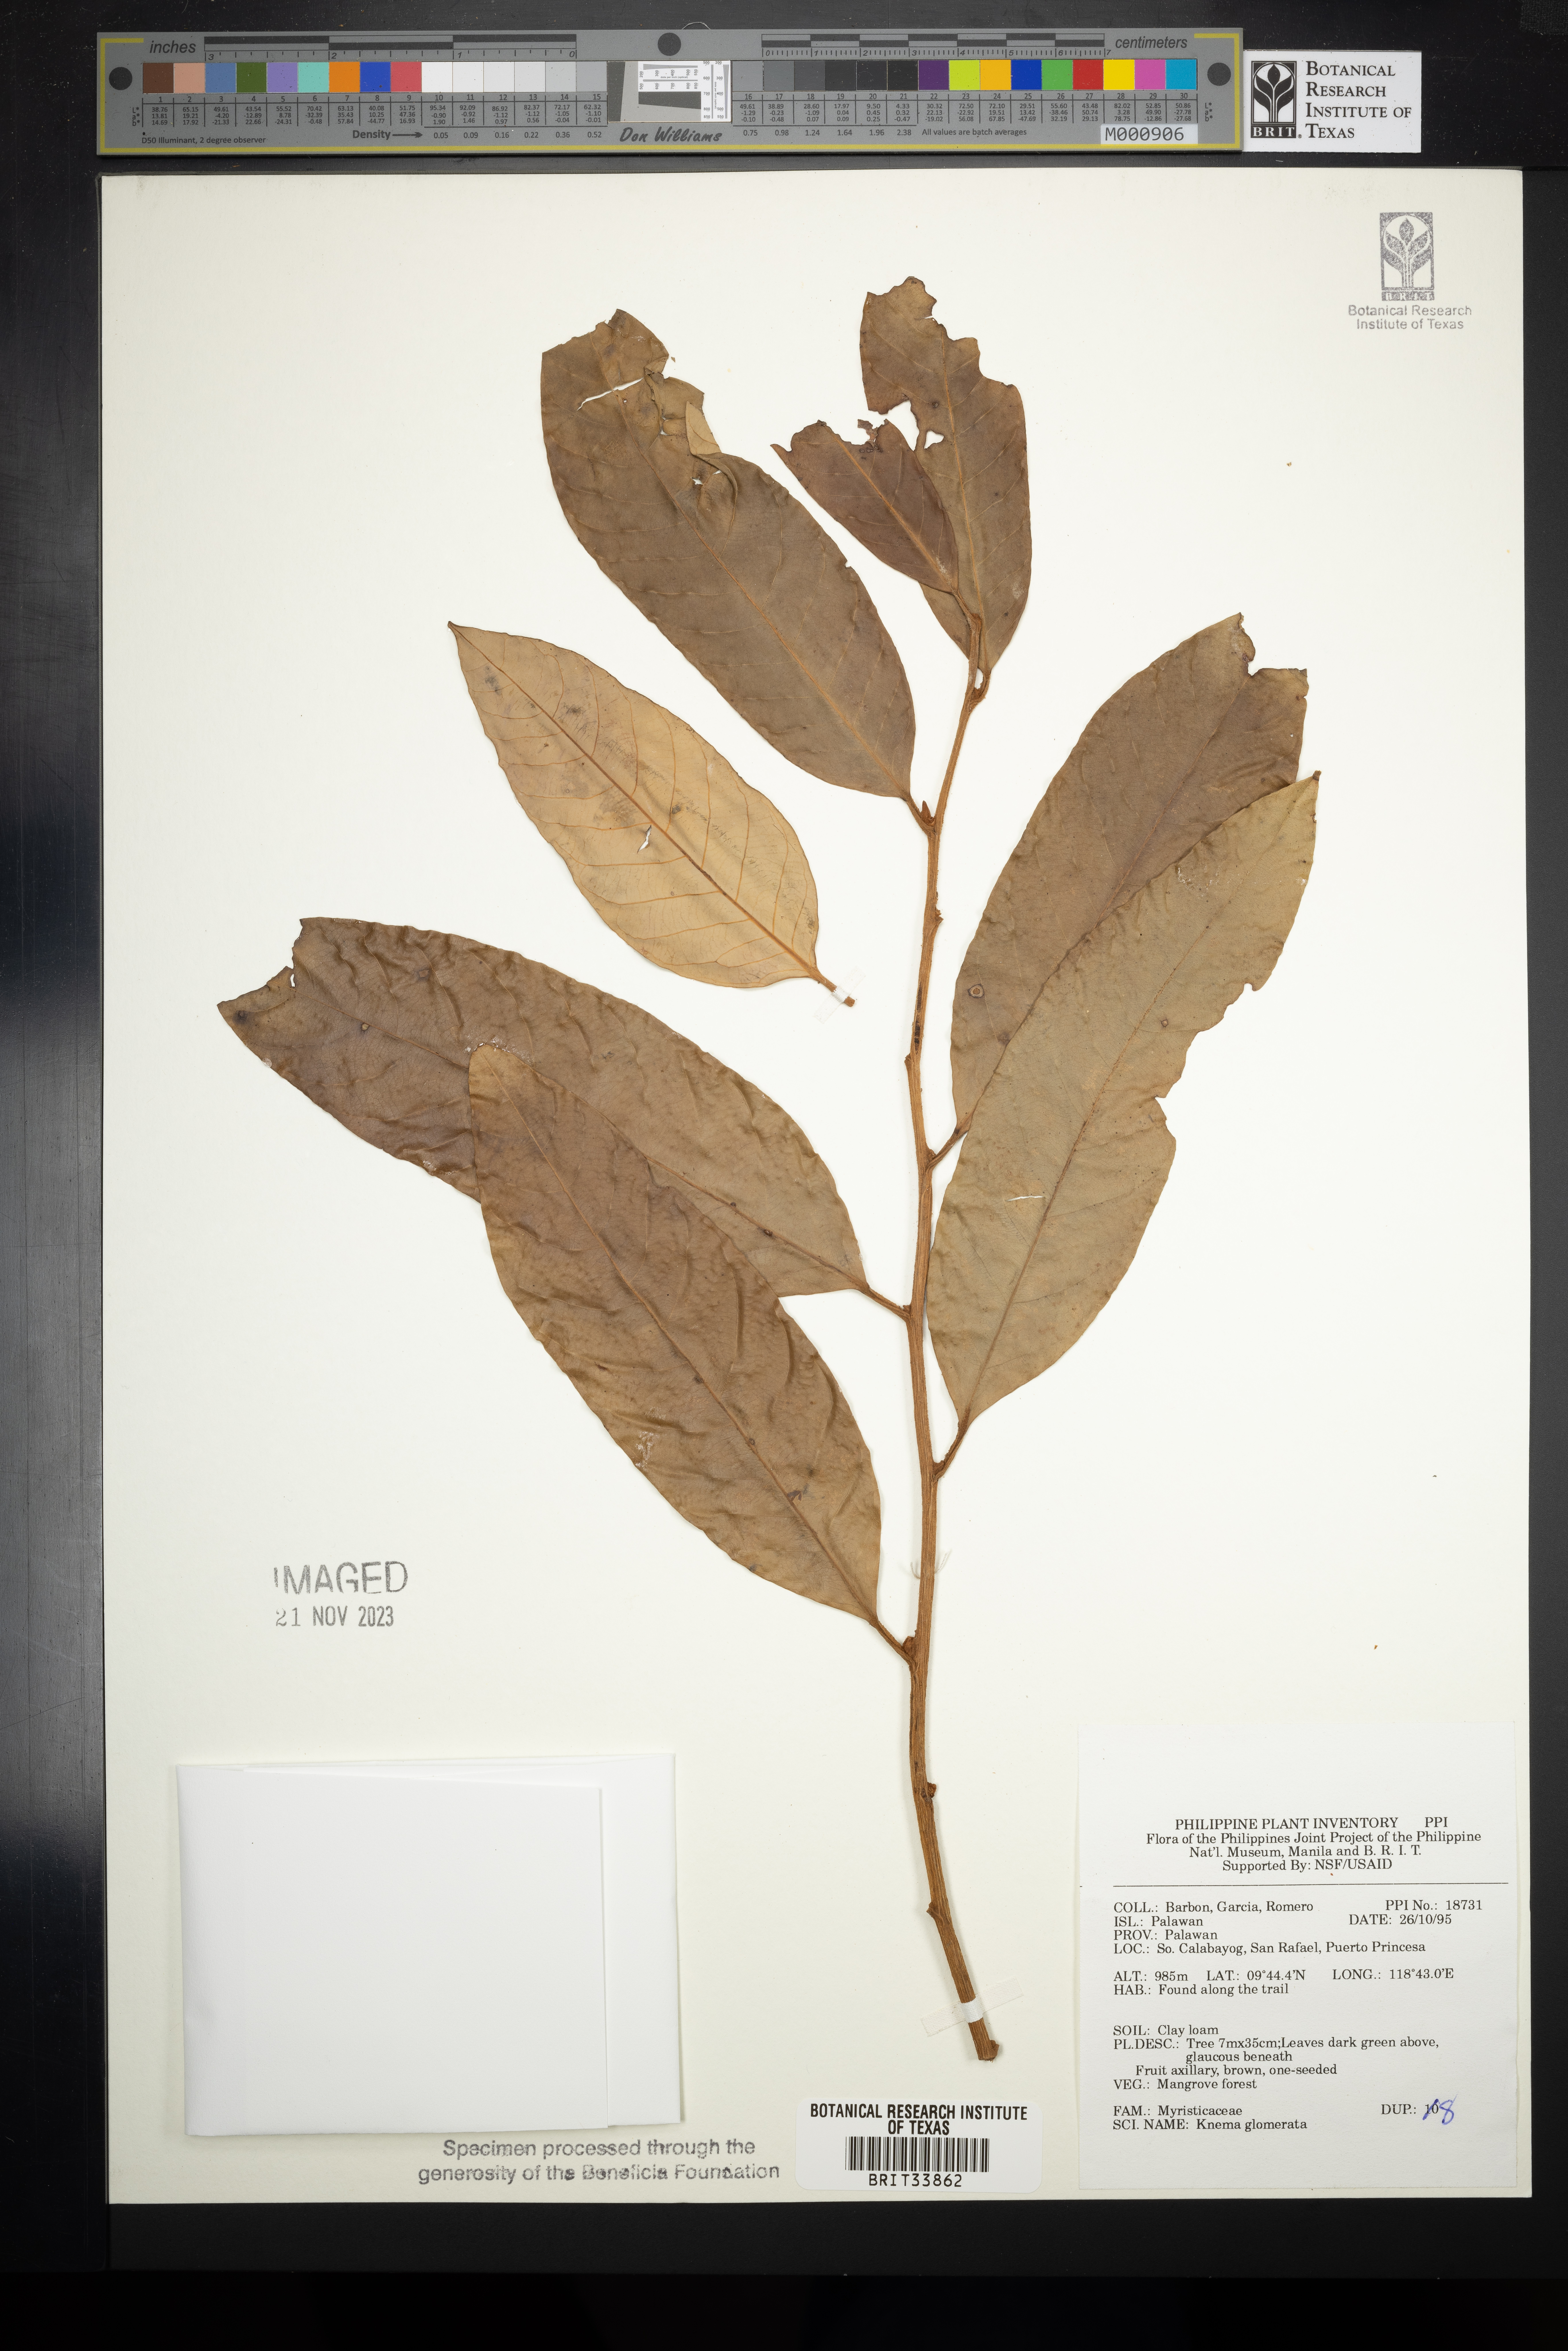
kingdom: Plantae
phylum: Tracheophyta
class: Magnoliopsida
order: Magnoliales
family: Myristicaceae
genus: Knema
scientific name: Knema glomerata
